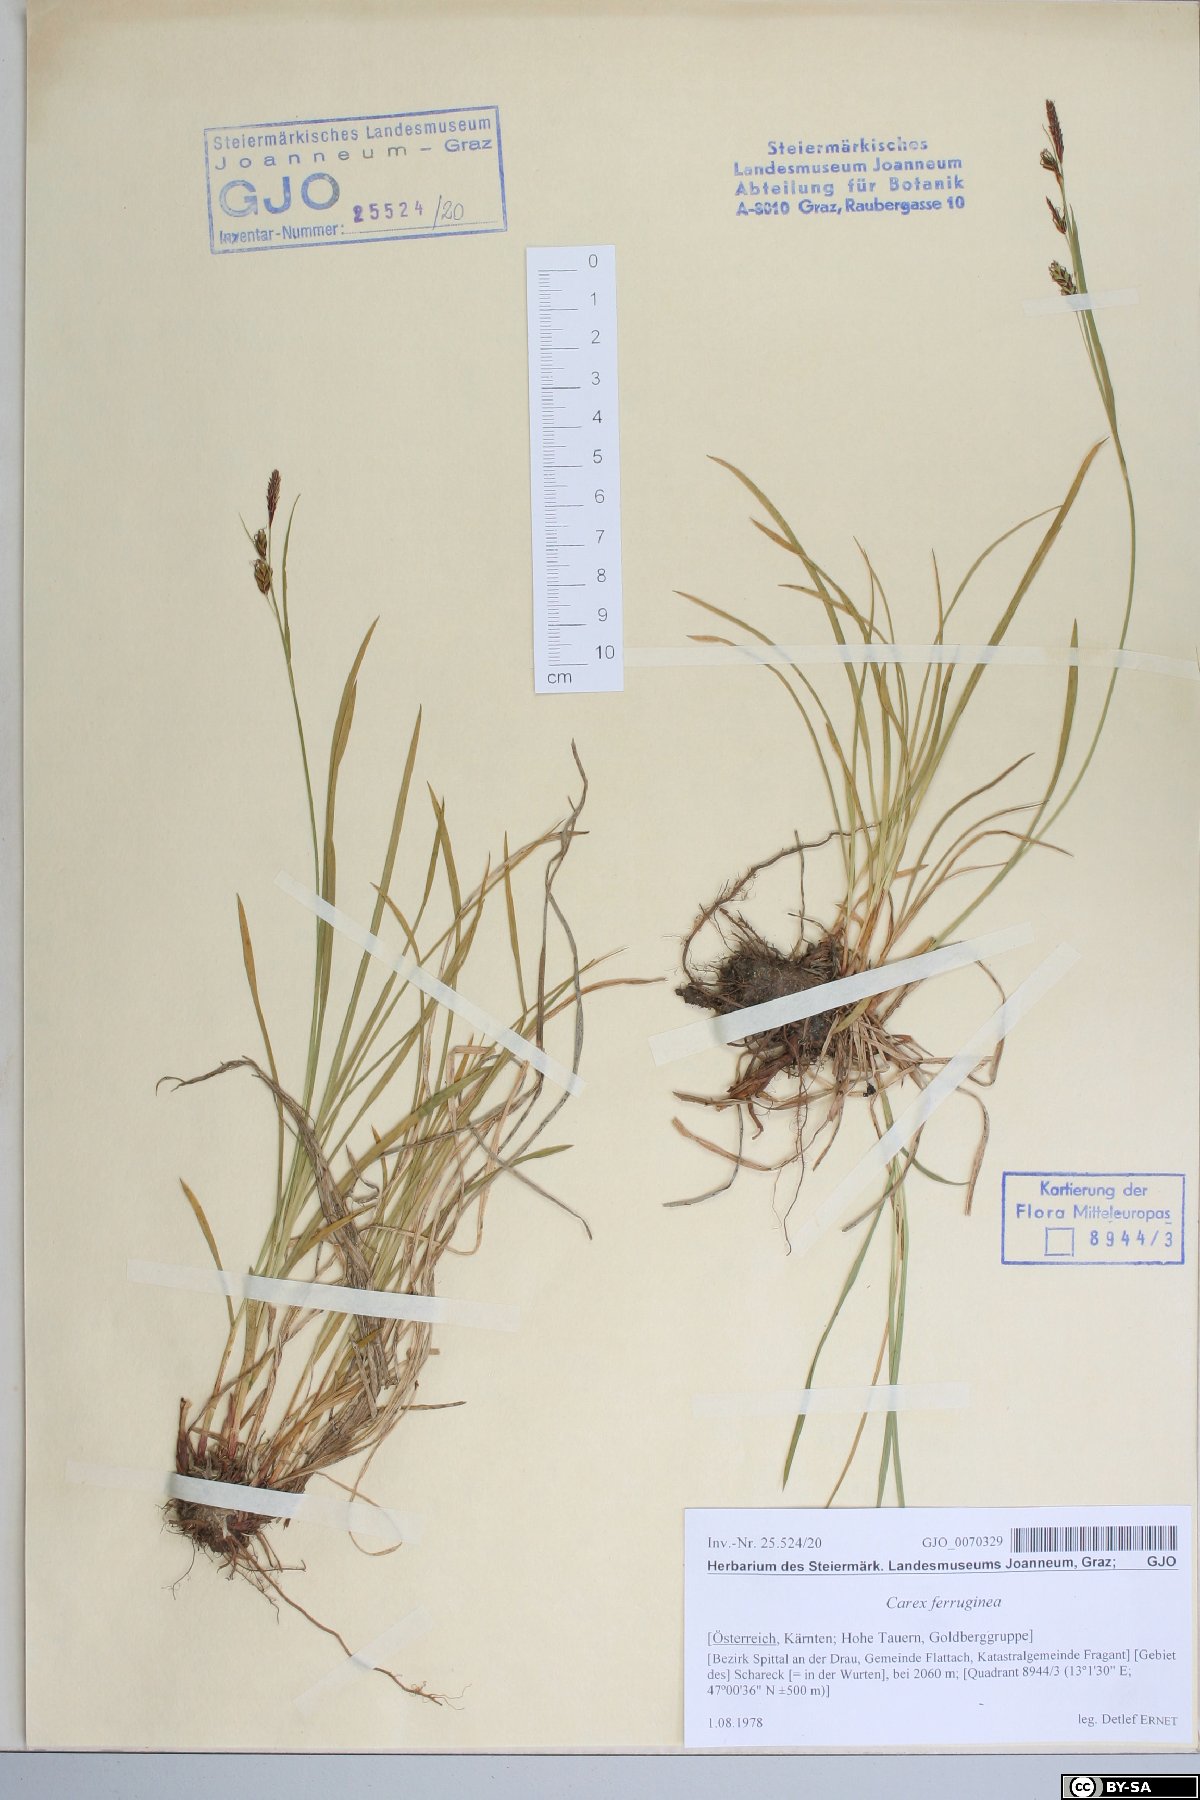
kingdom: Plantae
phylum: Tracheophyta
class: Liliopsida
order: Poales
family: Cyperaceae
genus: Carex
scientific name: Carex ferruginea
